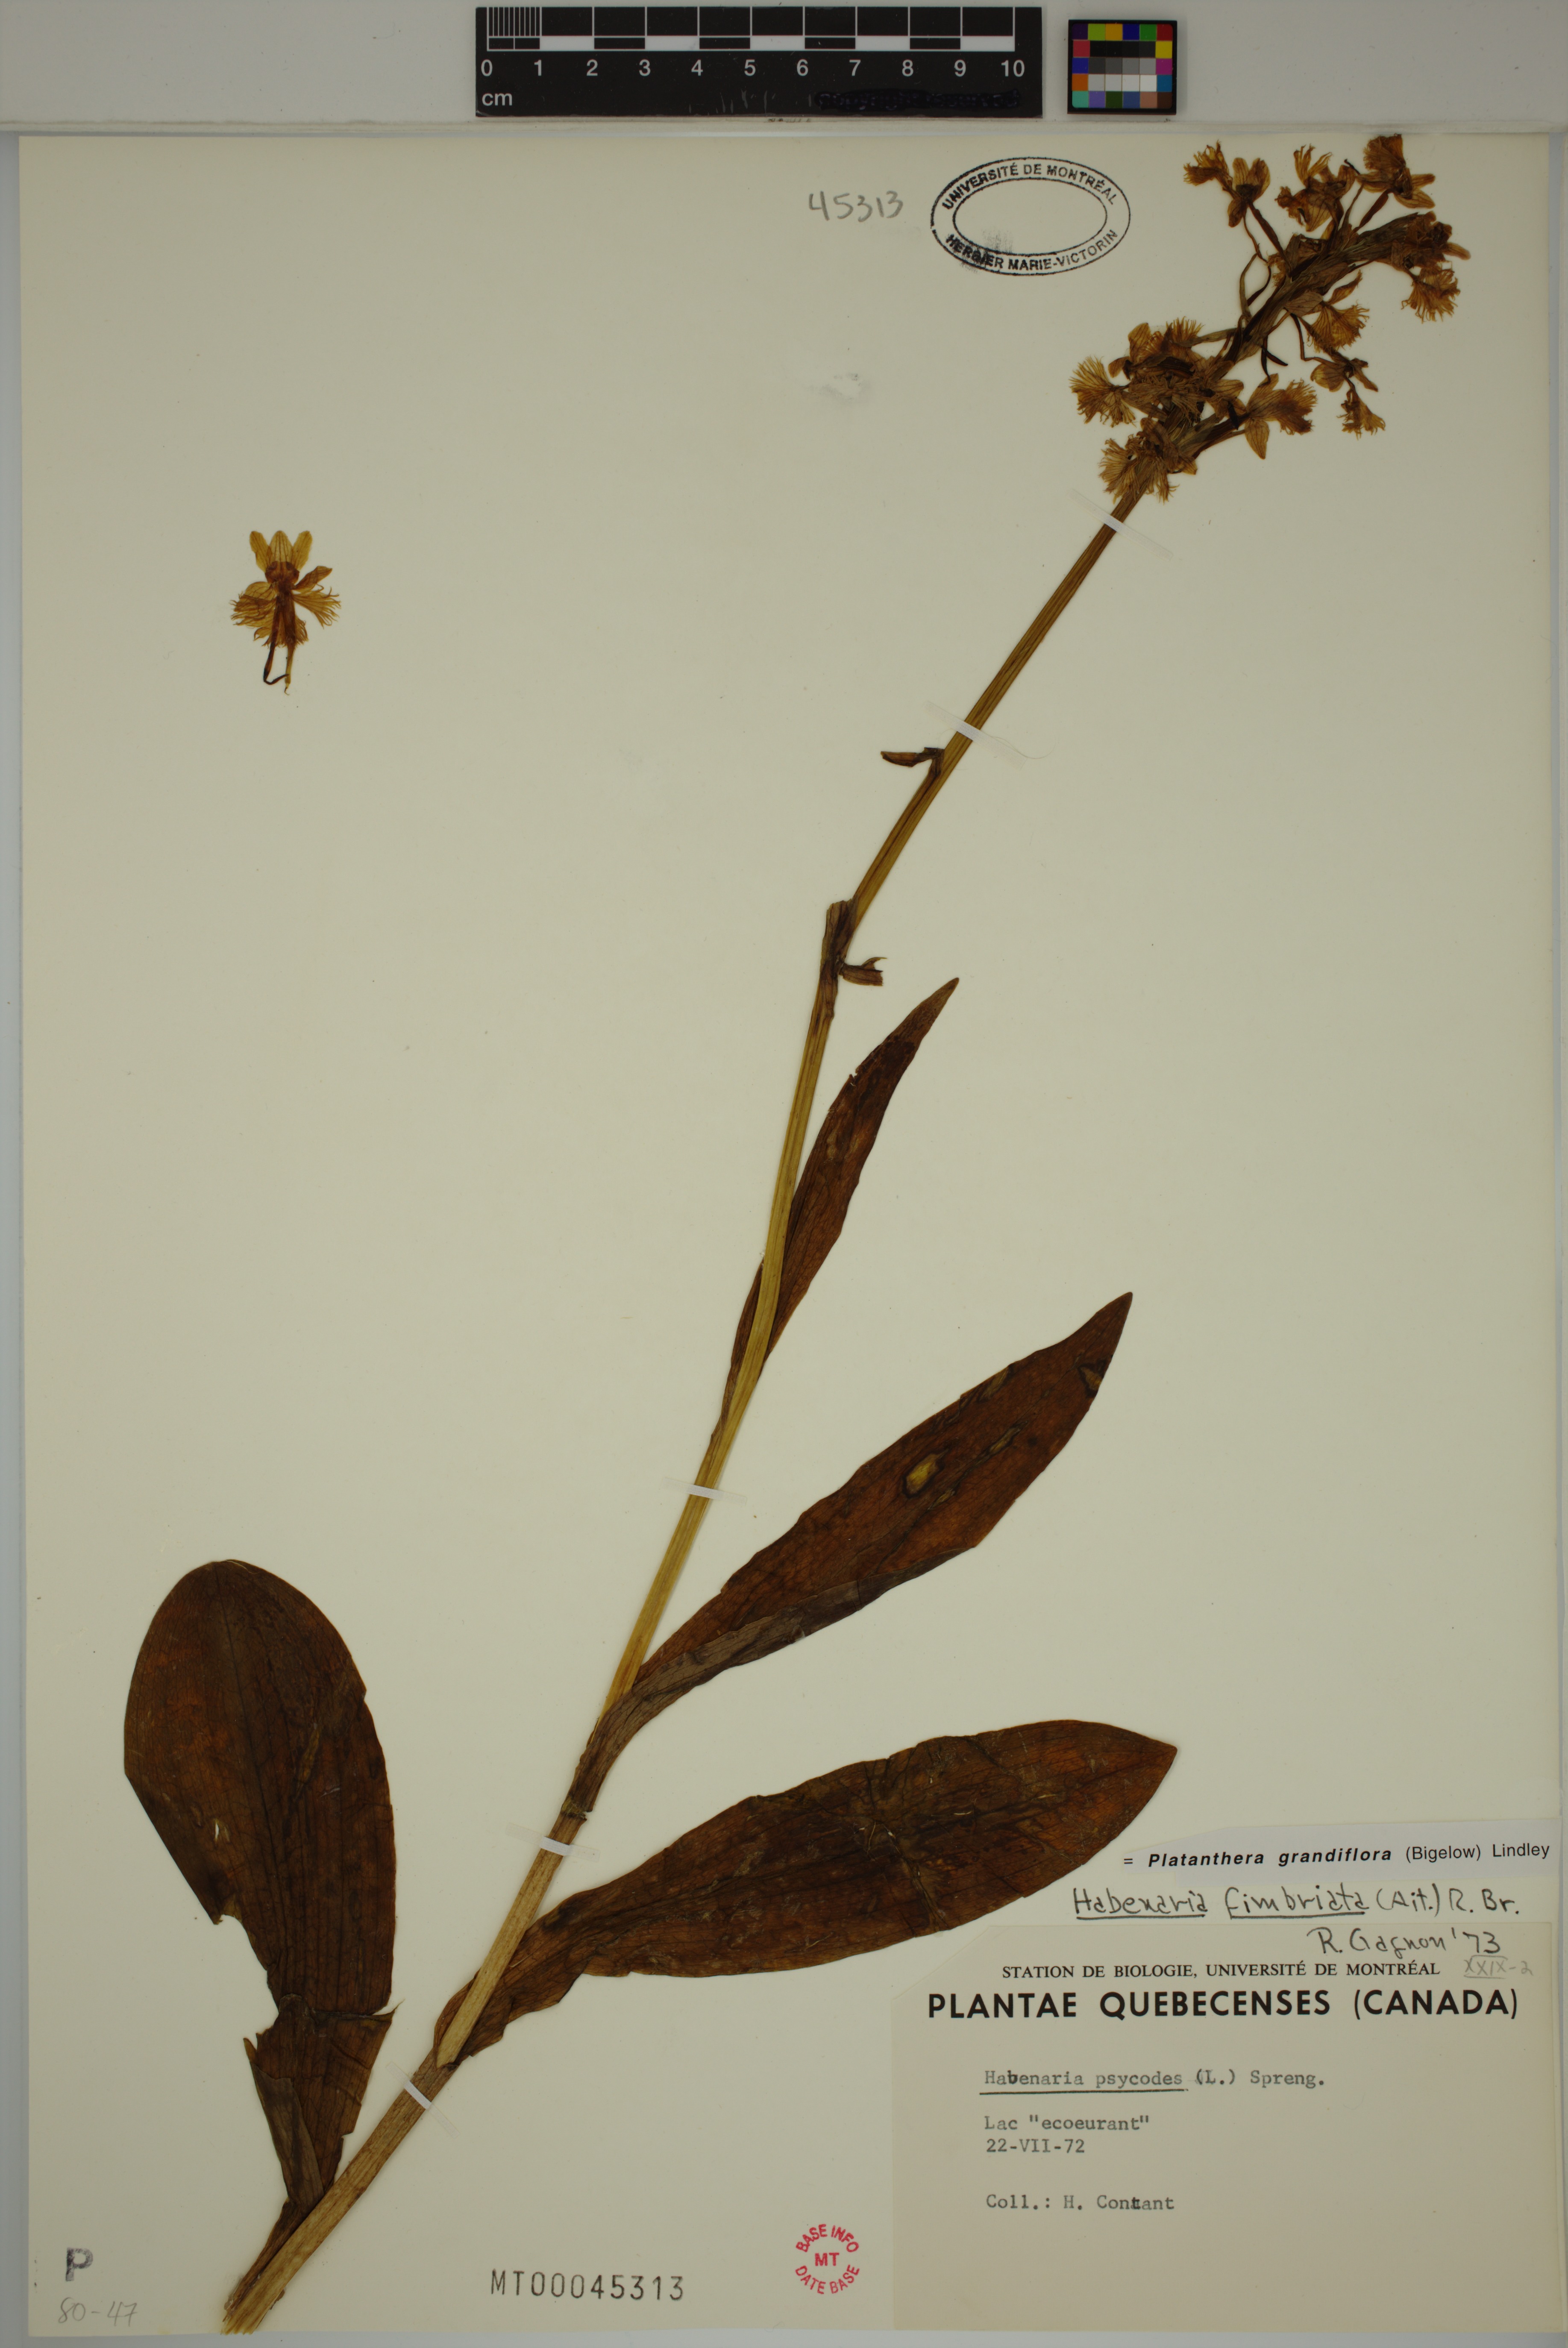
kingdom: Plantae
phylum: Tracheophyta
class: Liliopsida
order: Asparagales
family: Orchidaceae
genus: Platanthera
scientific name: Platanthera grandiflora
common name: Greater purple fringed orchid
